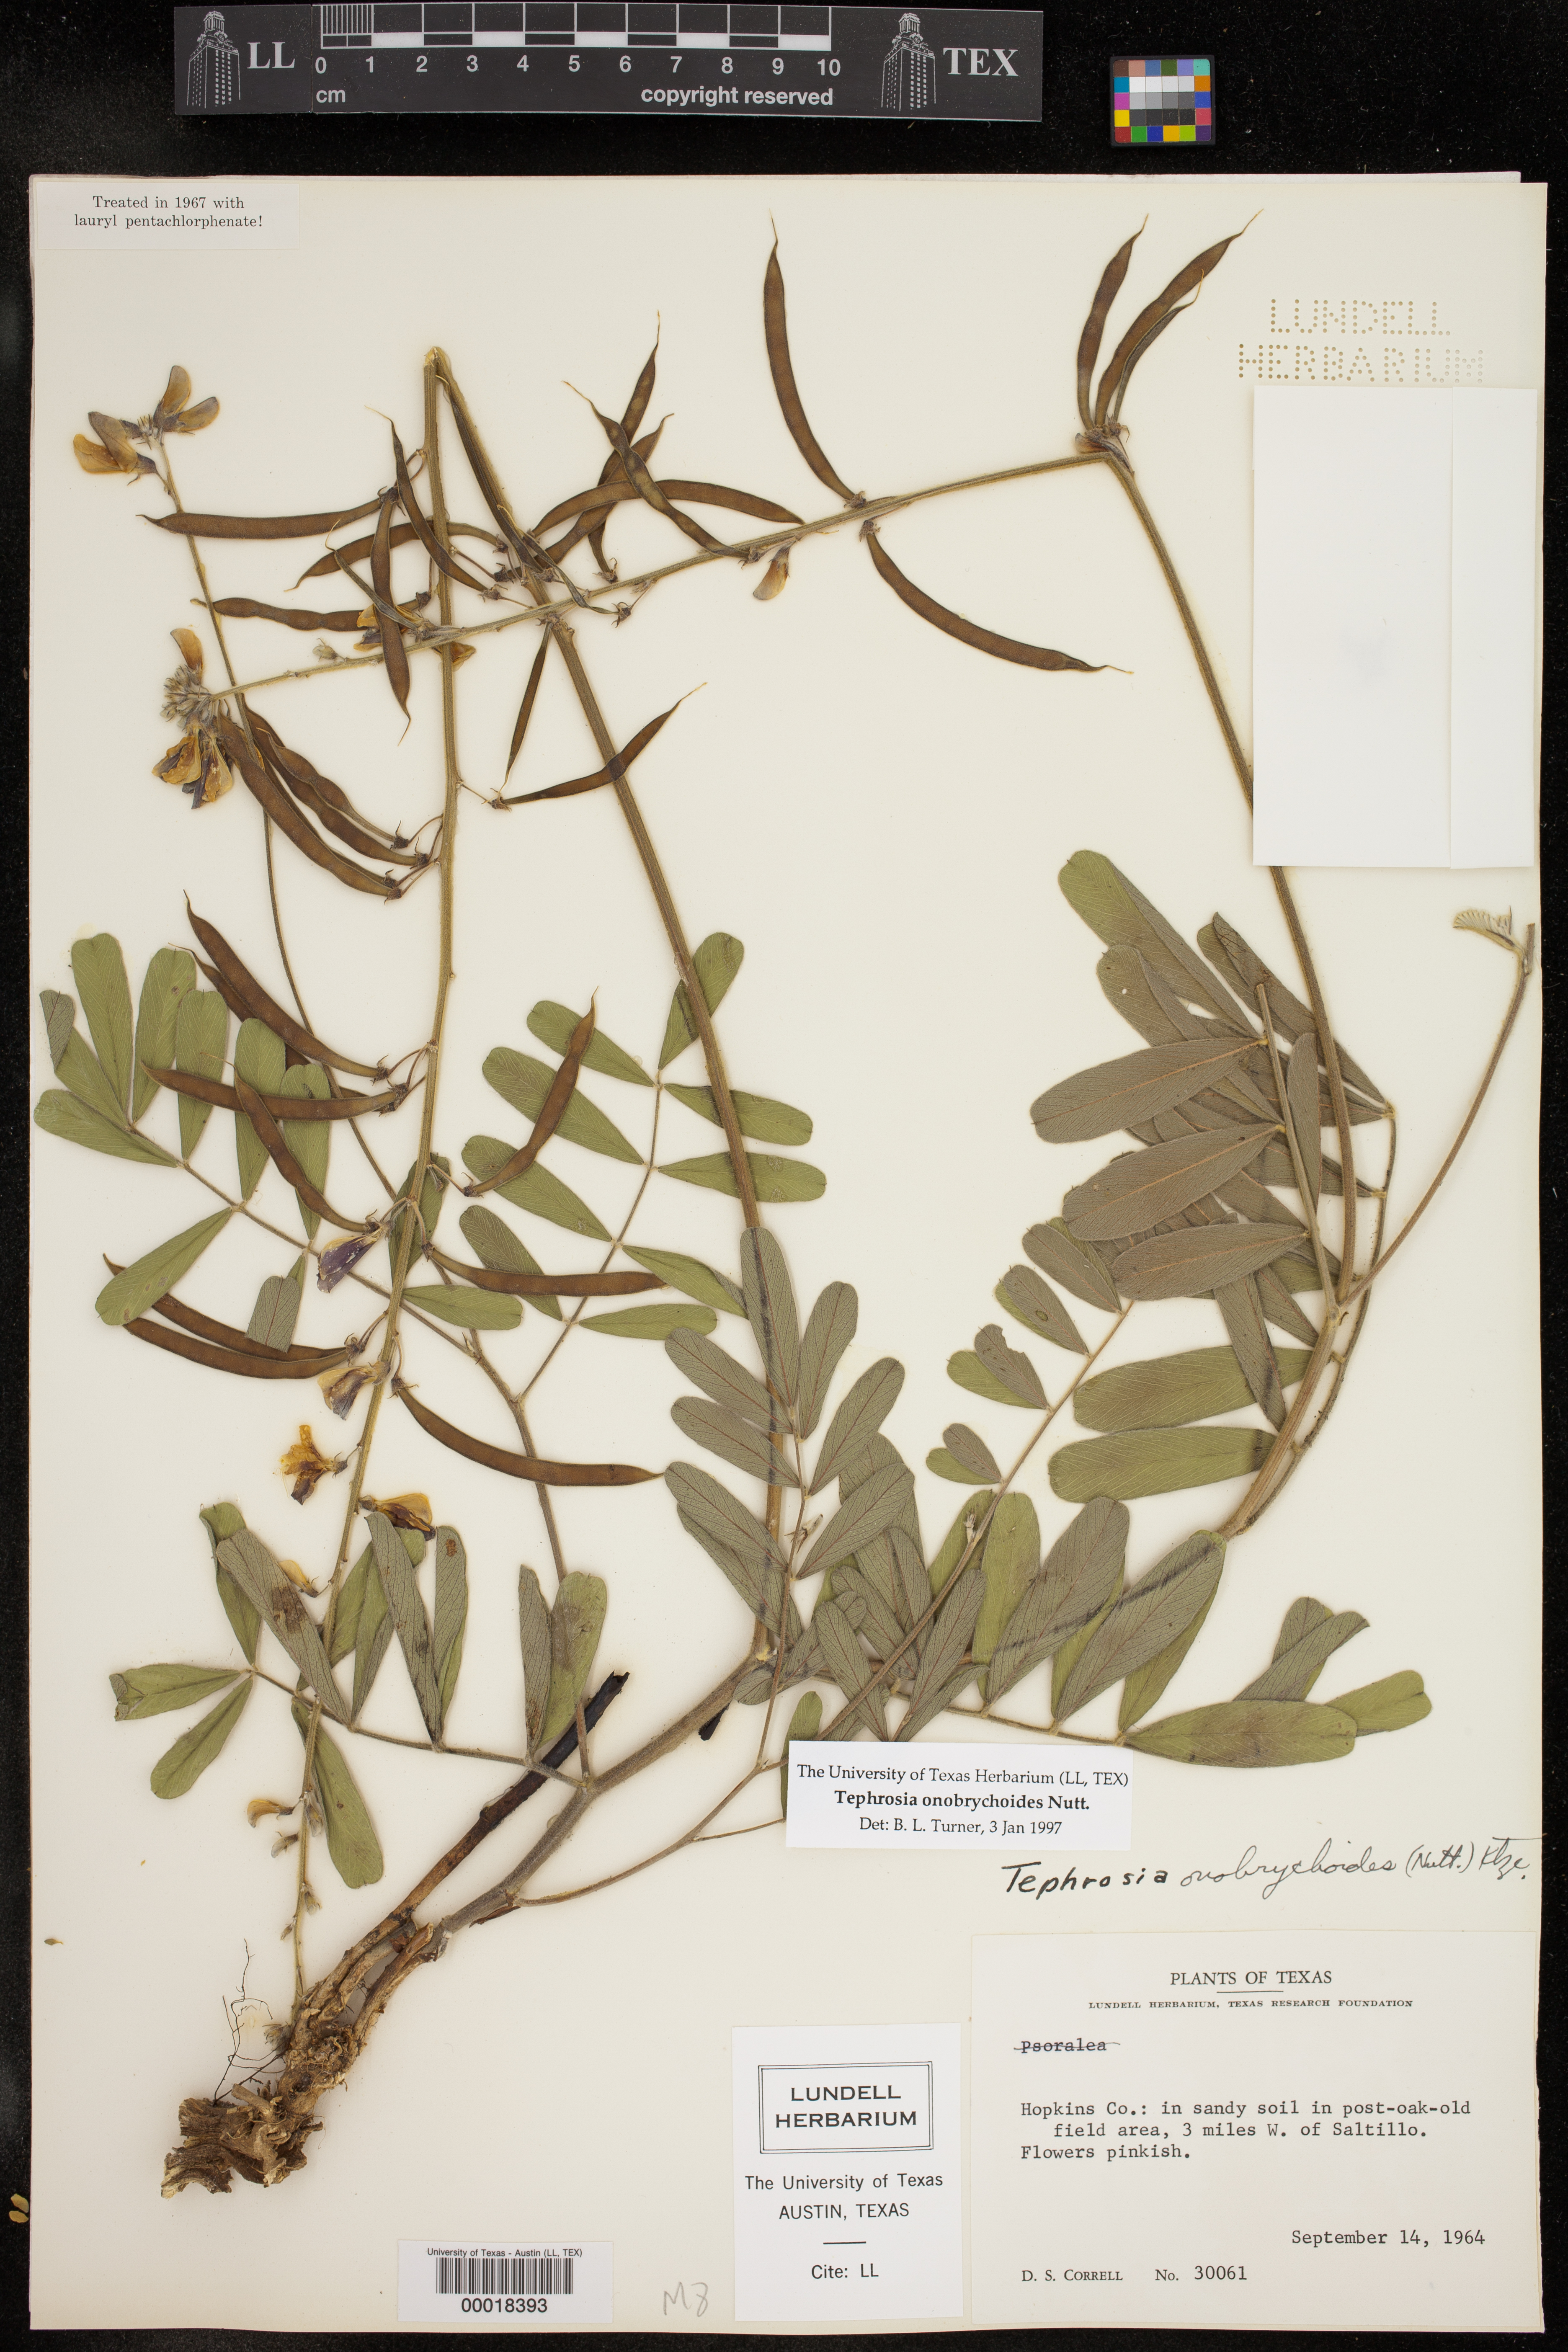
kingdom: Plantae
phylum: Tracheophyta
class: Magnoliopsida
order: Fabales
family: Fabaceae
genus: Tephrosia
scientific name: Tephrosia onobrychoides
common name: Multi-bloom hoary-pea
